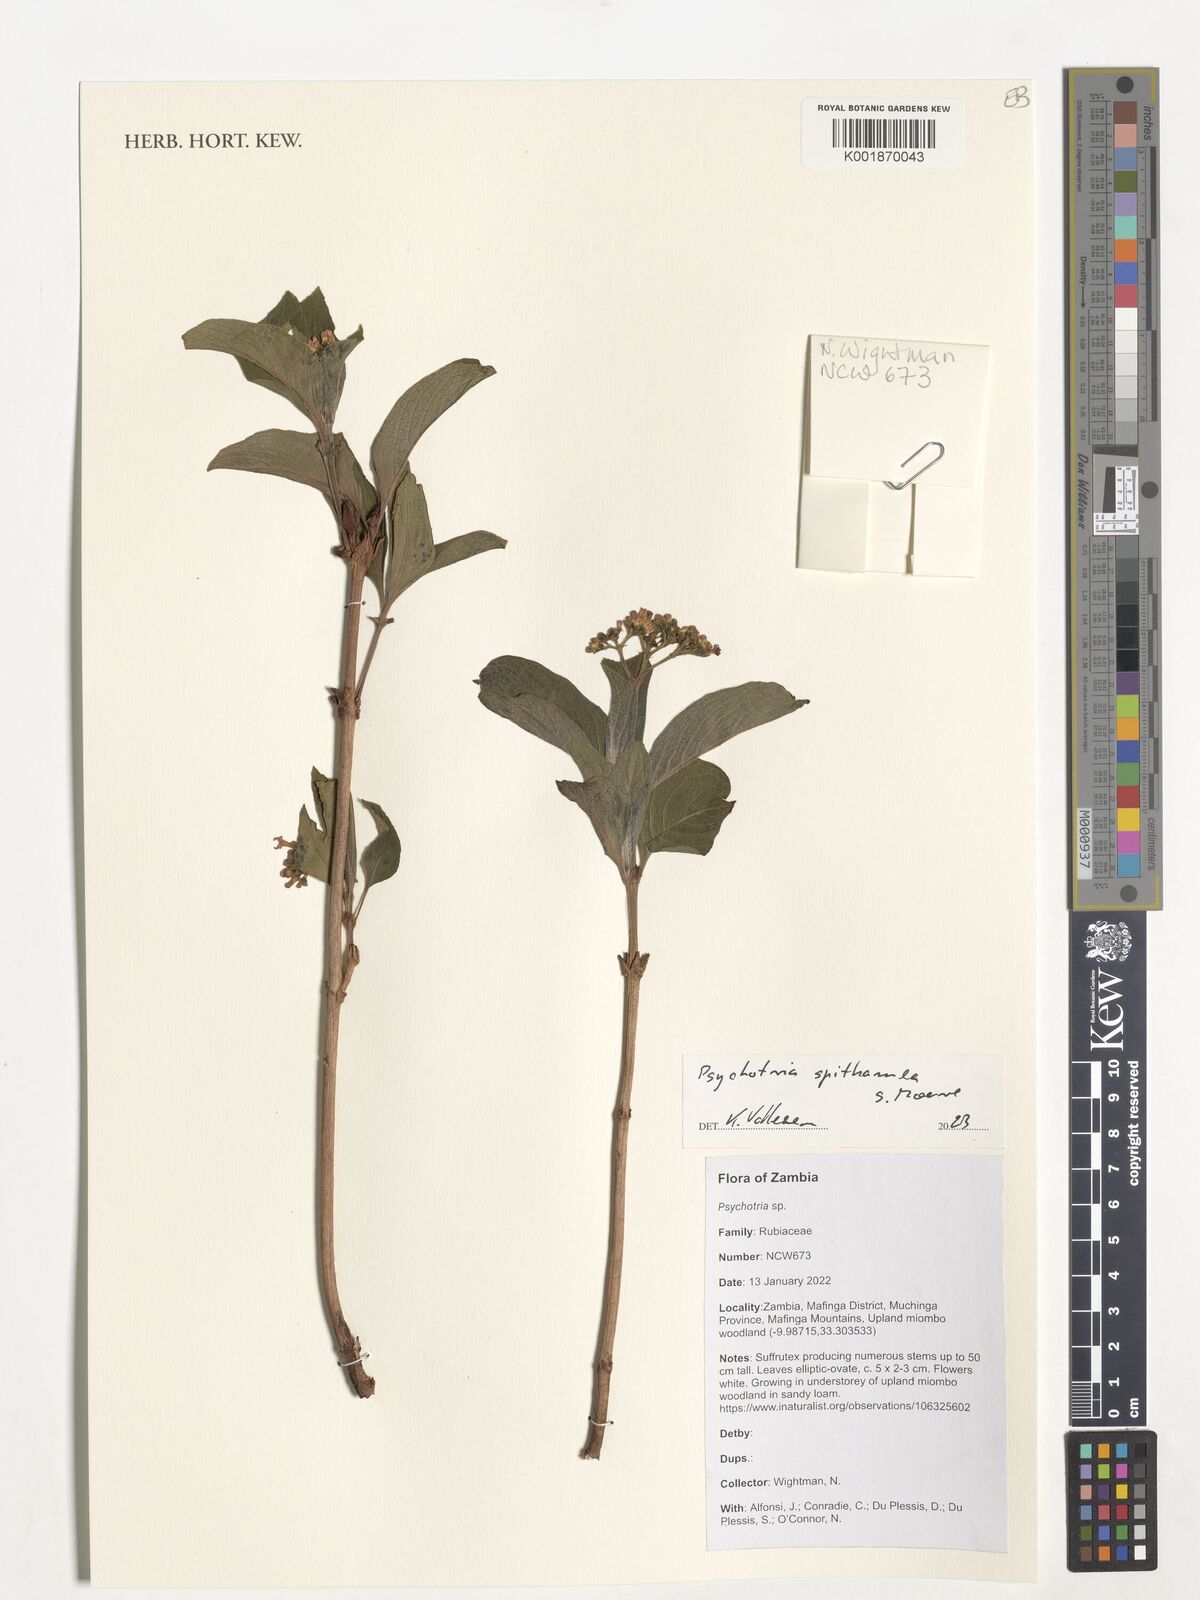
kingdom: Plantae
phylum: Tracheophyta
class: Magnoliopsida
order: Gentianales
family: Rubiaceae
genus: Psychotria
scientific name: Psychotria spithamea
